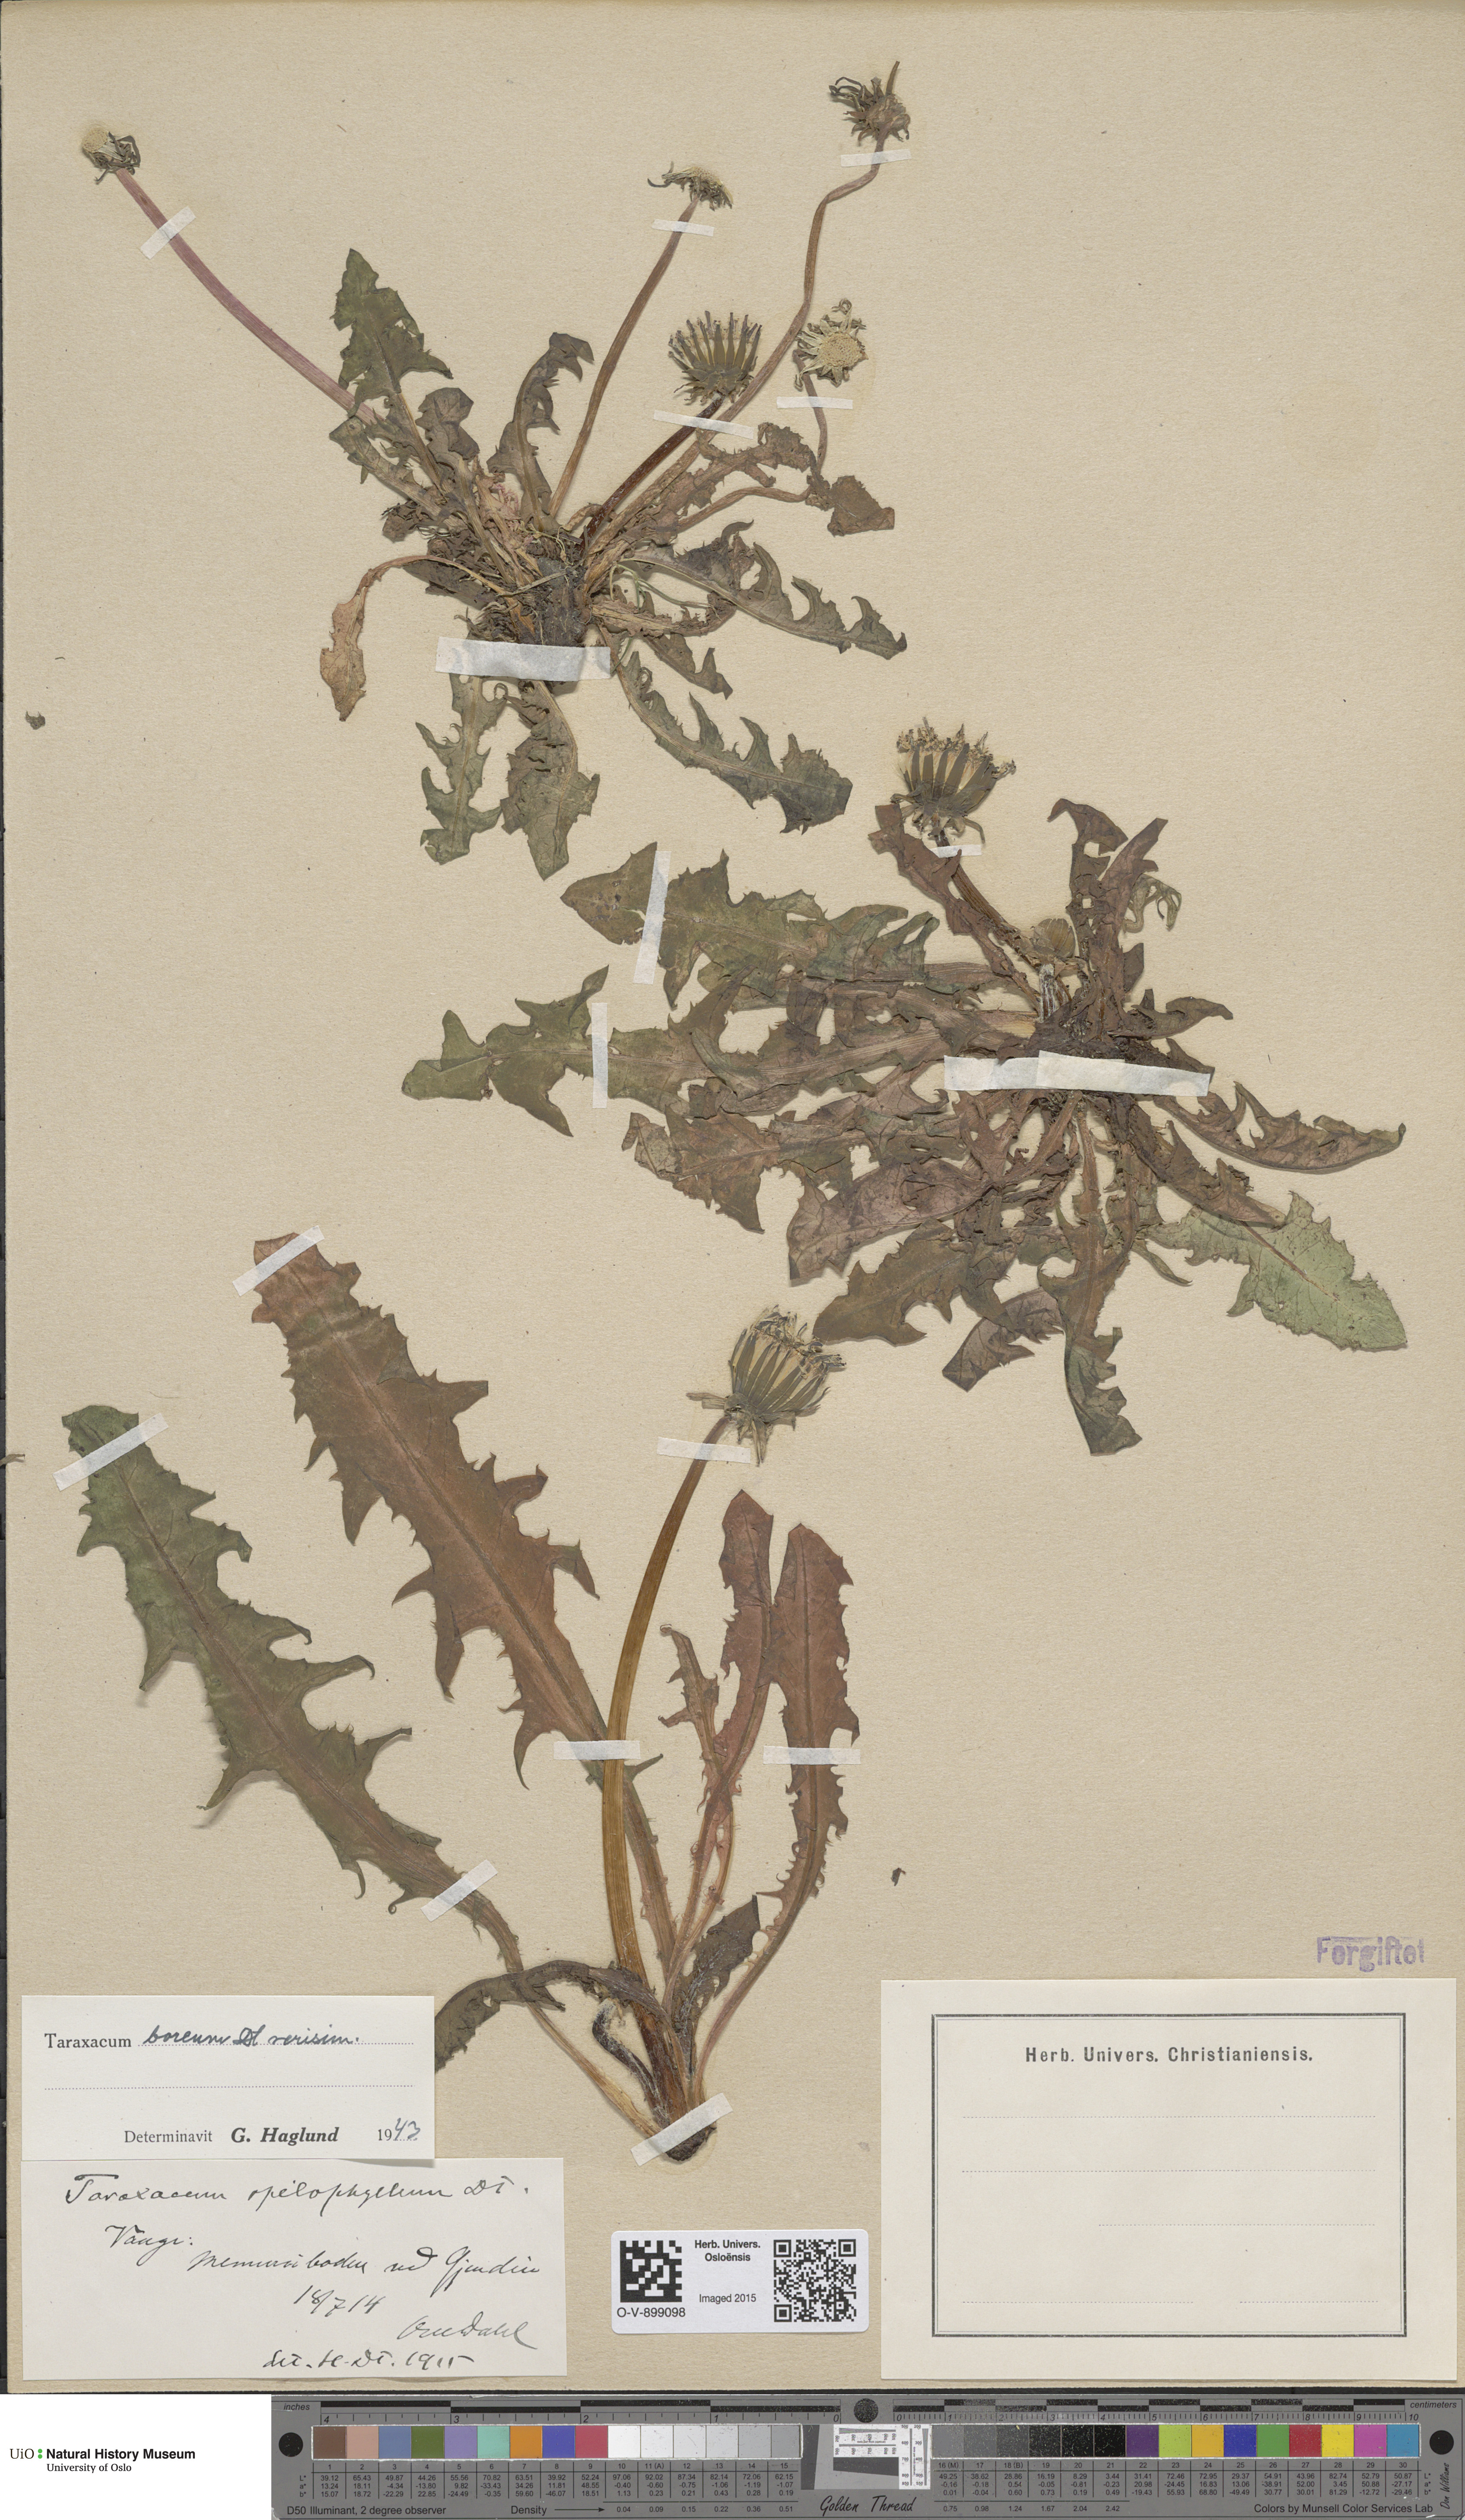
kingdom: Plantae
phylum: Tracheophyta
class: Magnoliopsida
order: Asterales
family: Asteraceae
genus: Taraxacum
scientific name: Taraxacum septentrionale
